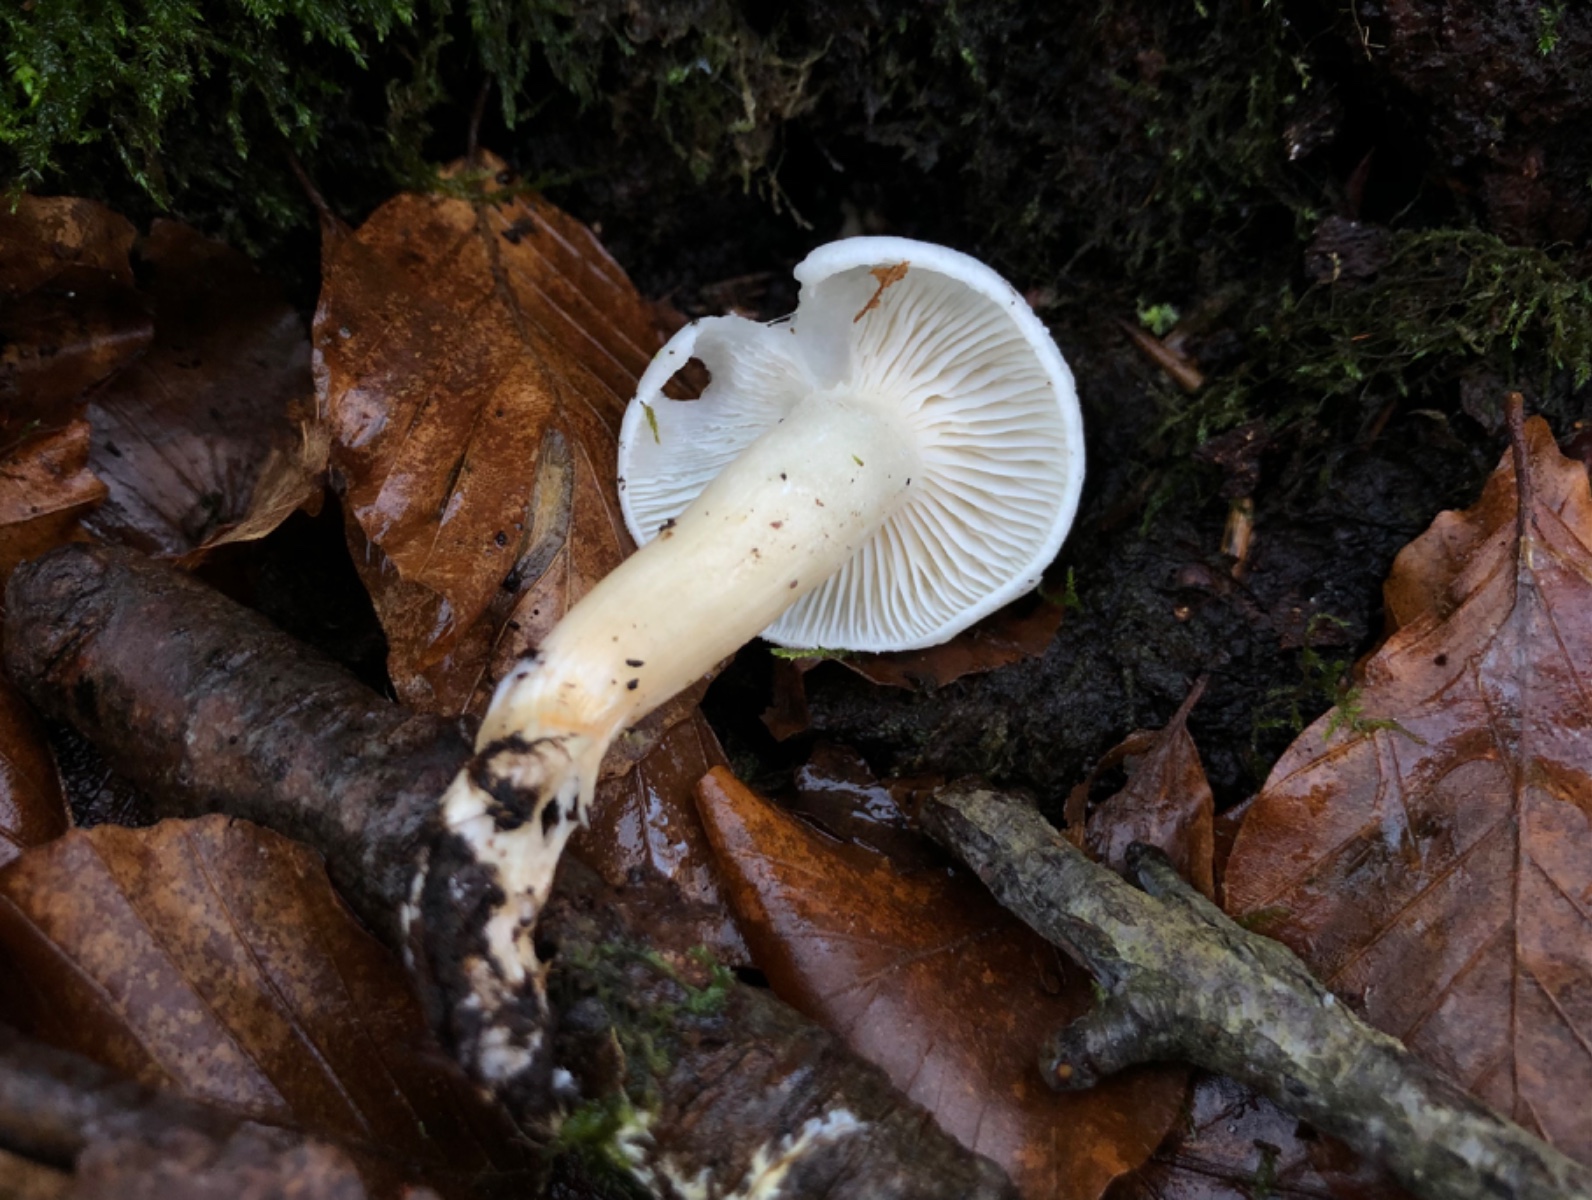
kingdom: Fungi
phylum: Basidiomycota
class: Agaricomycetes
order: Agaricales
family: Hygrophoraceae
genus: Hygrophorus
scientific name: Hygrophorus eburneus
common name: elfenbens-sneglehat
